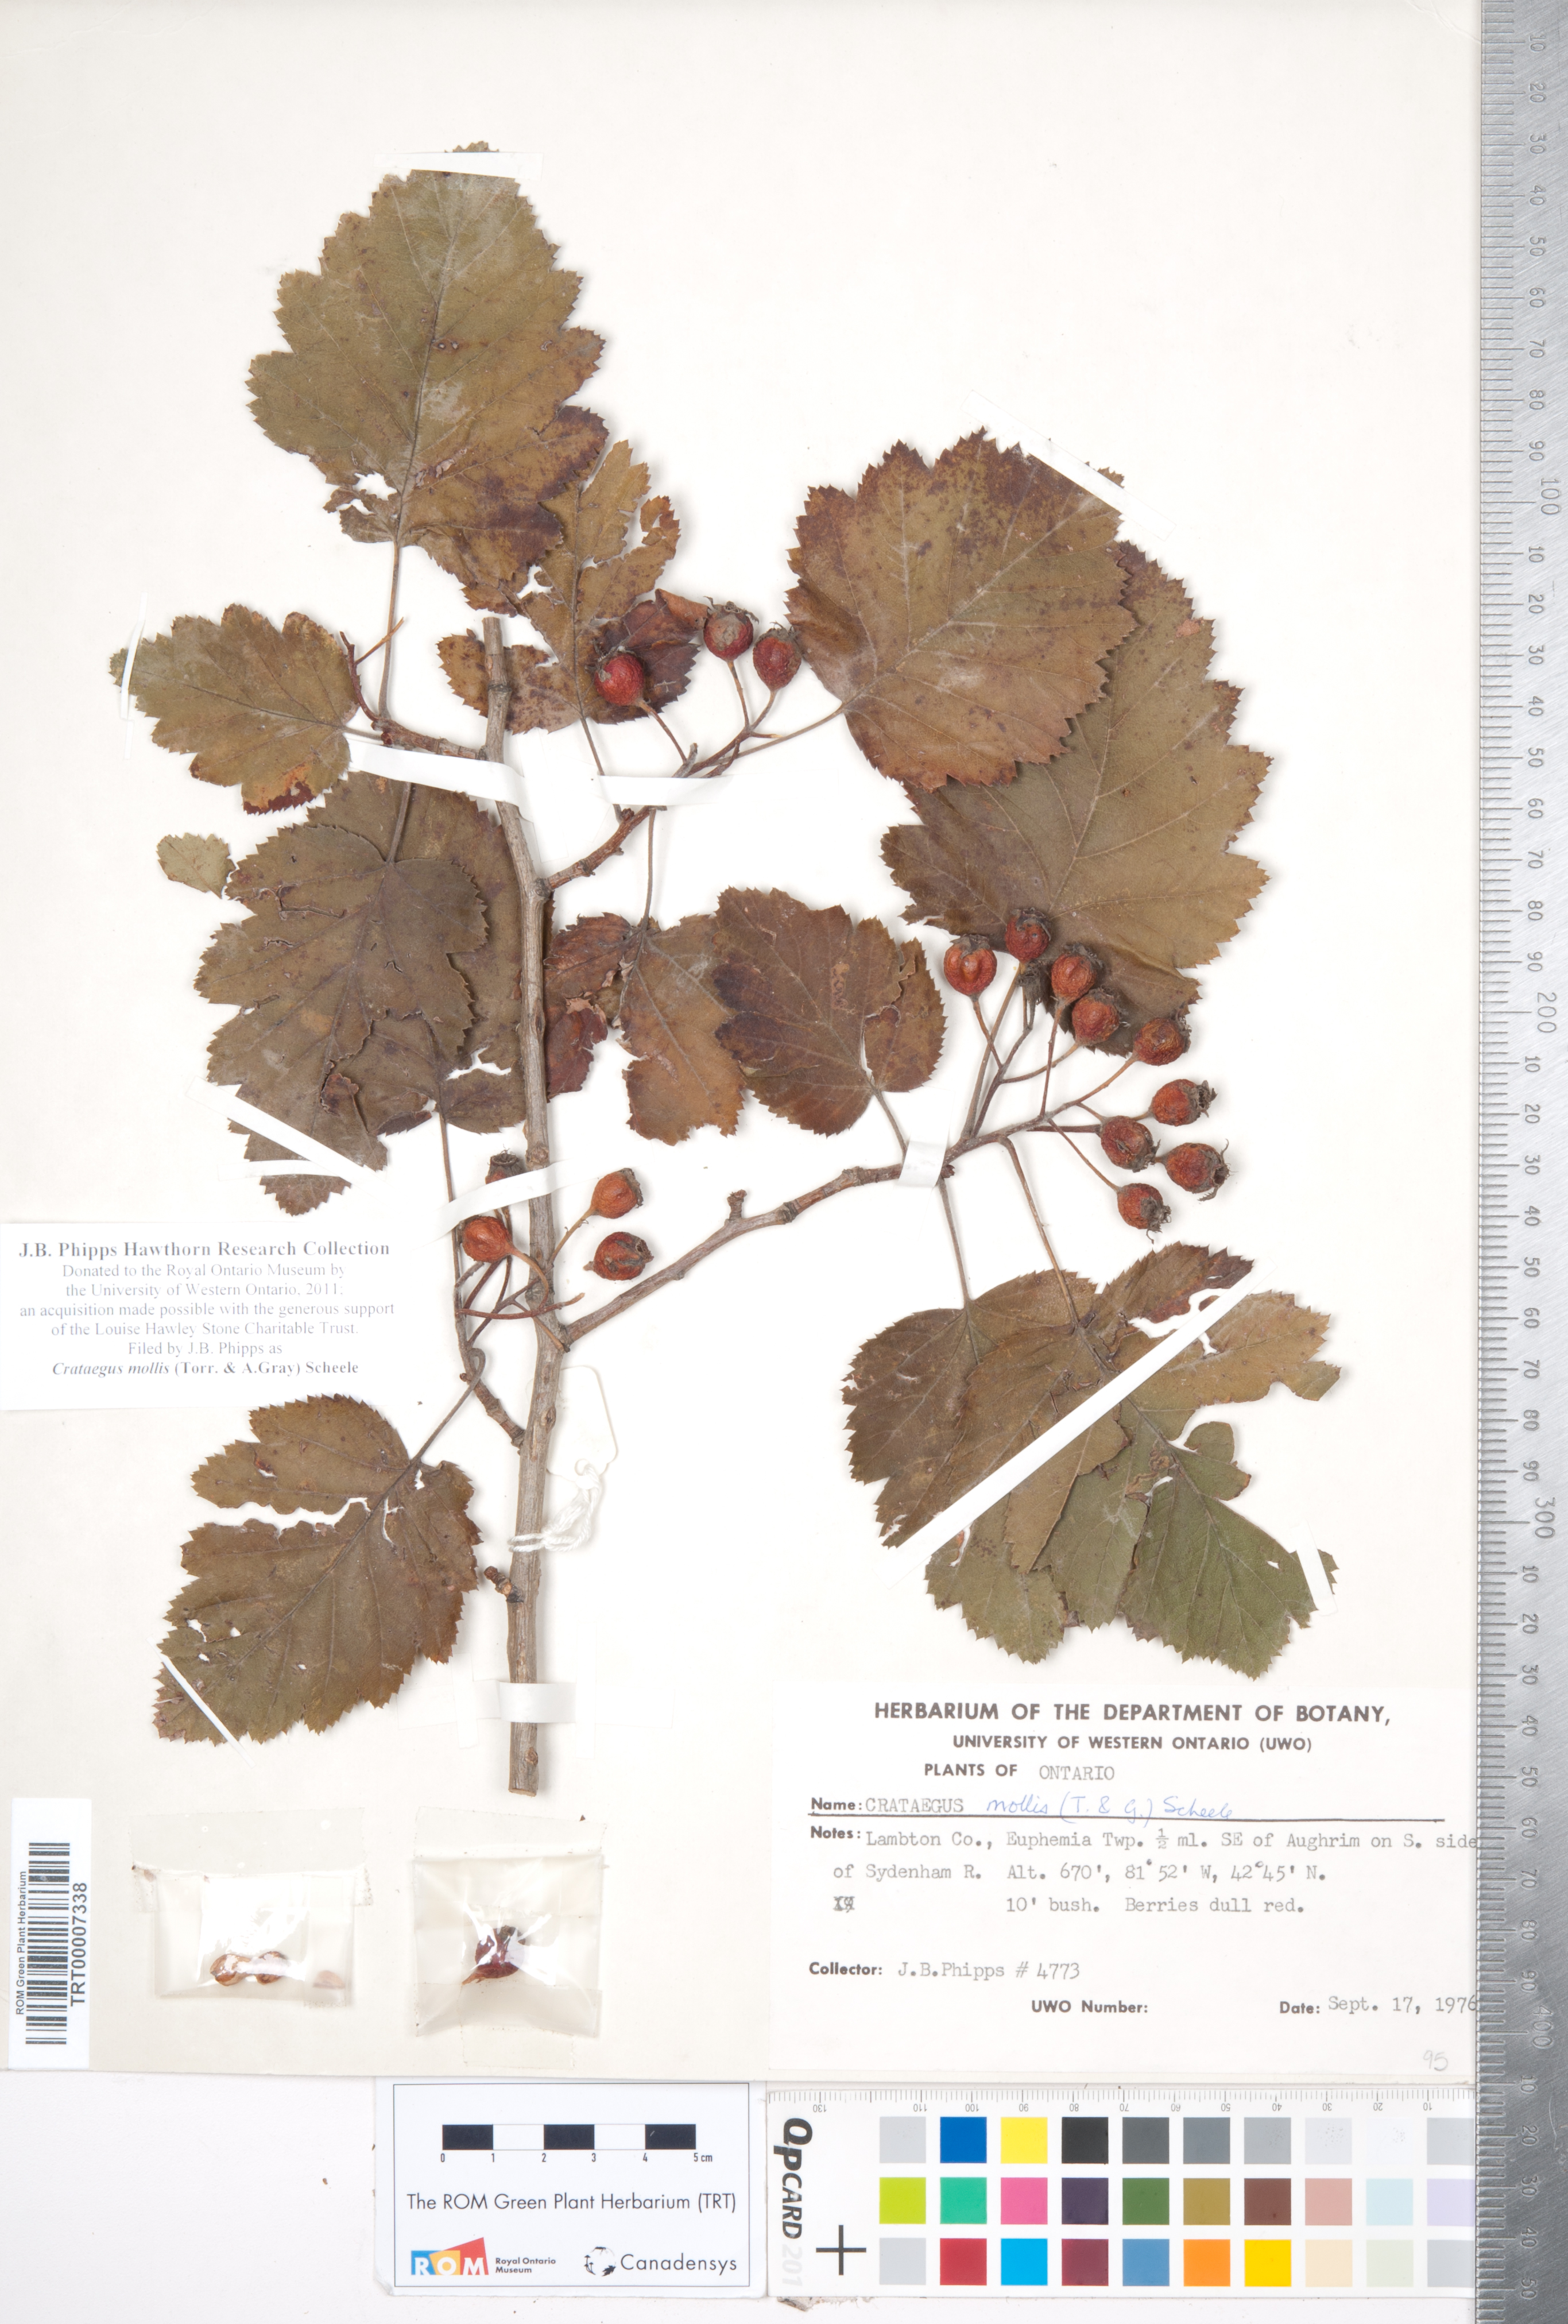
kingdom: Plantae
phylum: Tracheophyta
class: Magnoliopsida
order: Rosales
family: Rosaceae
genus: Crataegus
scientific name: Crataegus mollis
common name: Downy hawthorn
